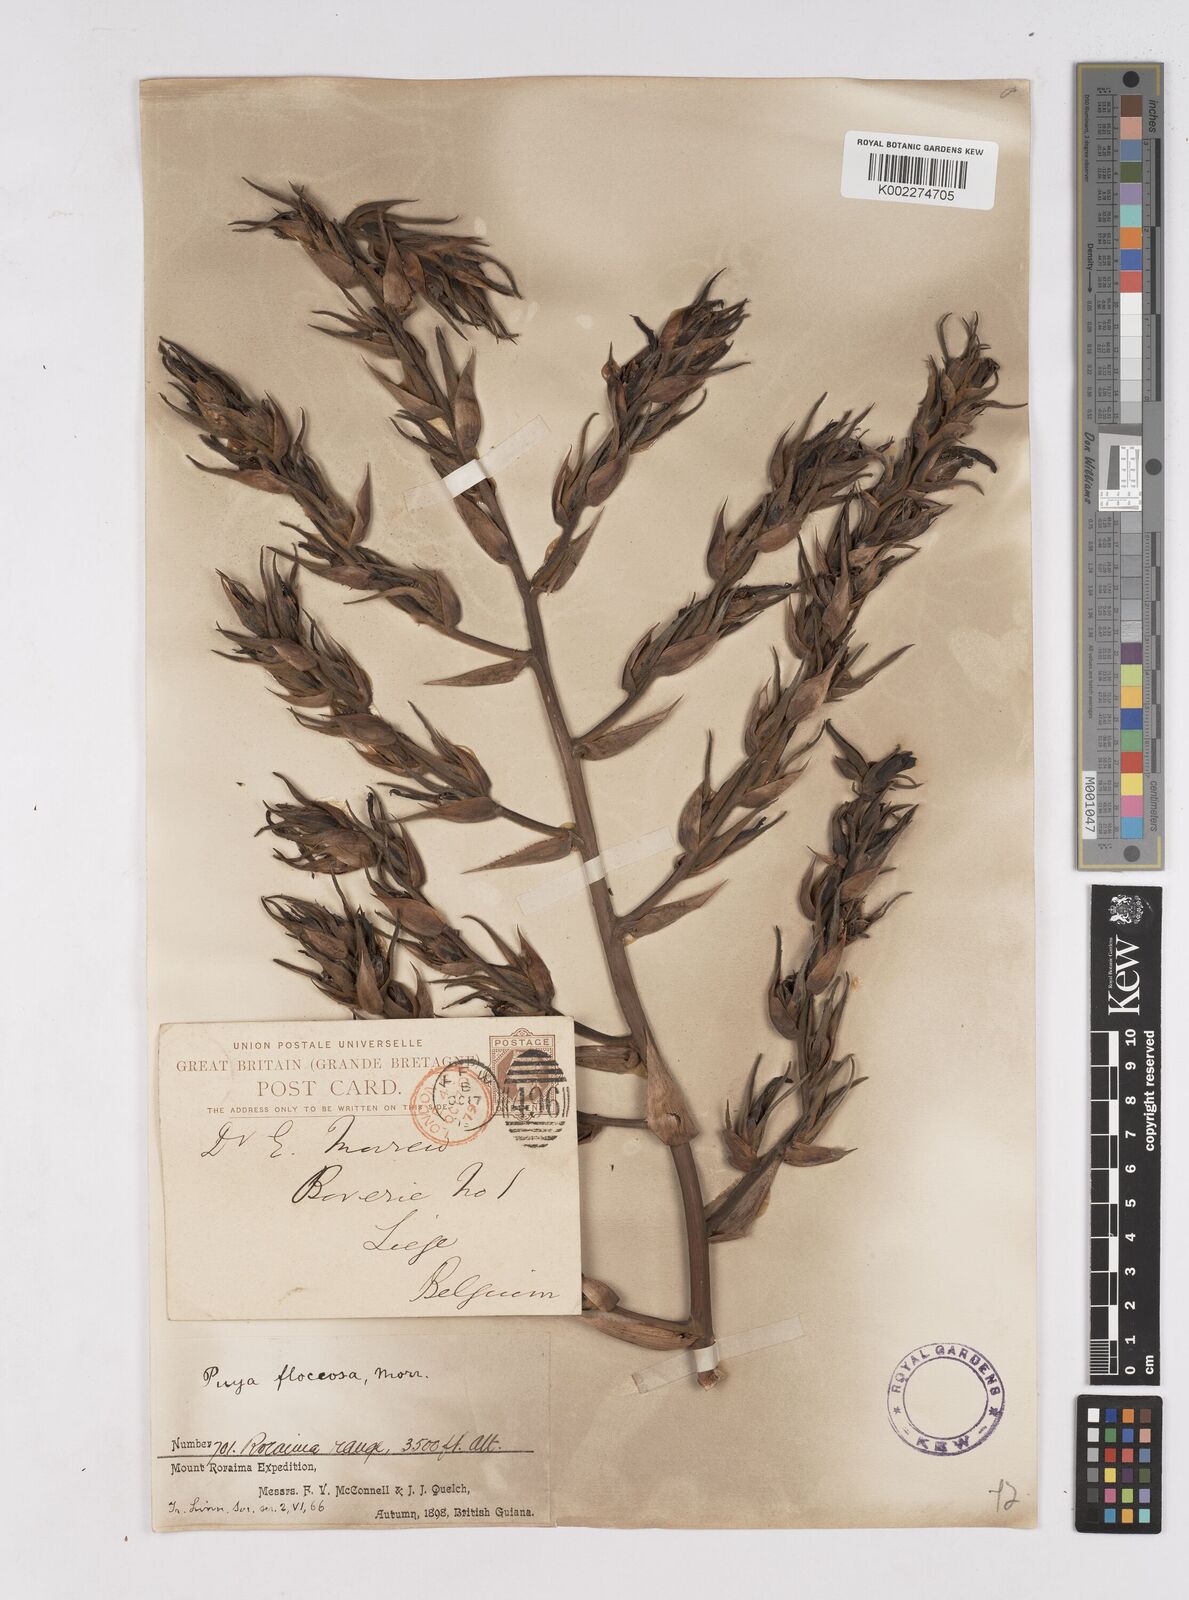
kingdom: Plantae
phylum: Tracheophyta
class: Liliopsida
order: Poales
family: Bromeliaceae
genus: Puya
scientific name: Puya floccosa
